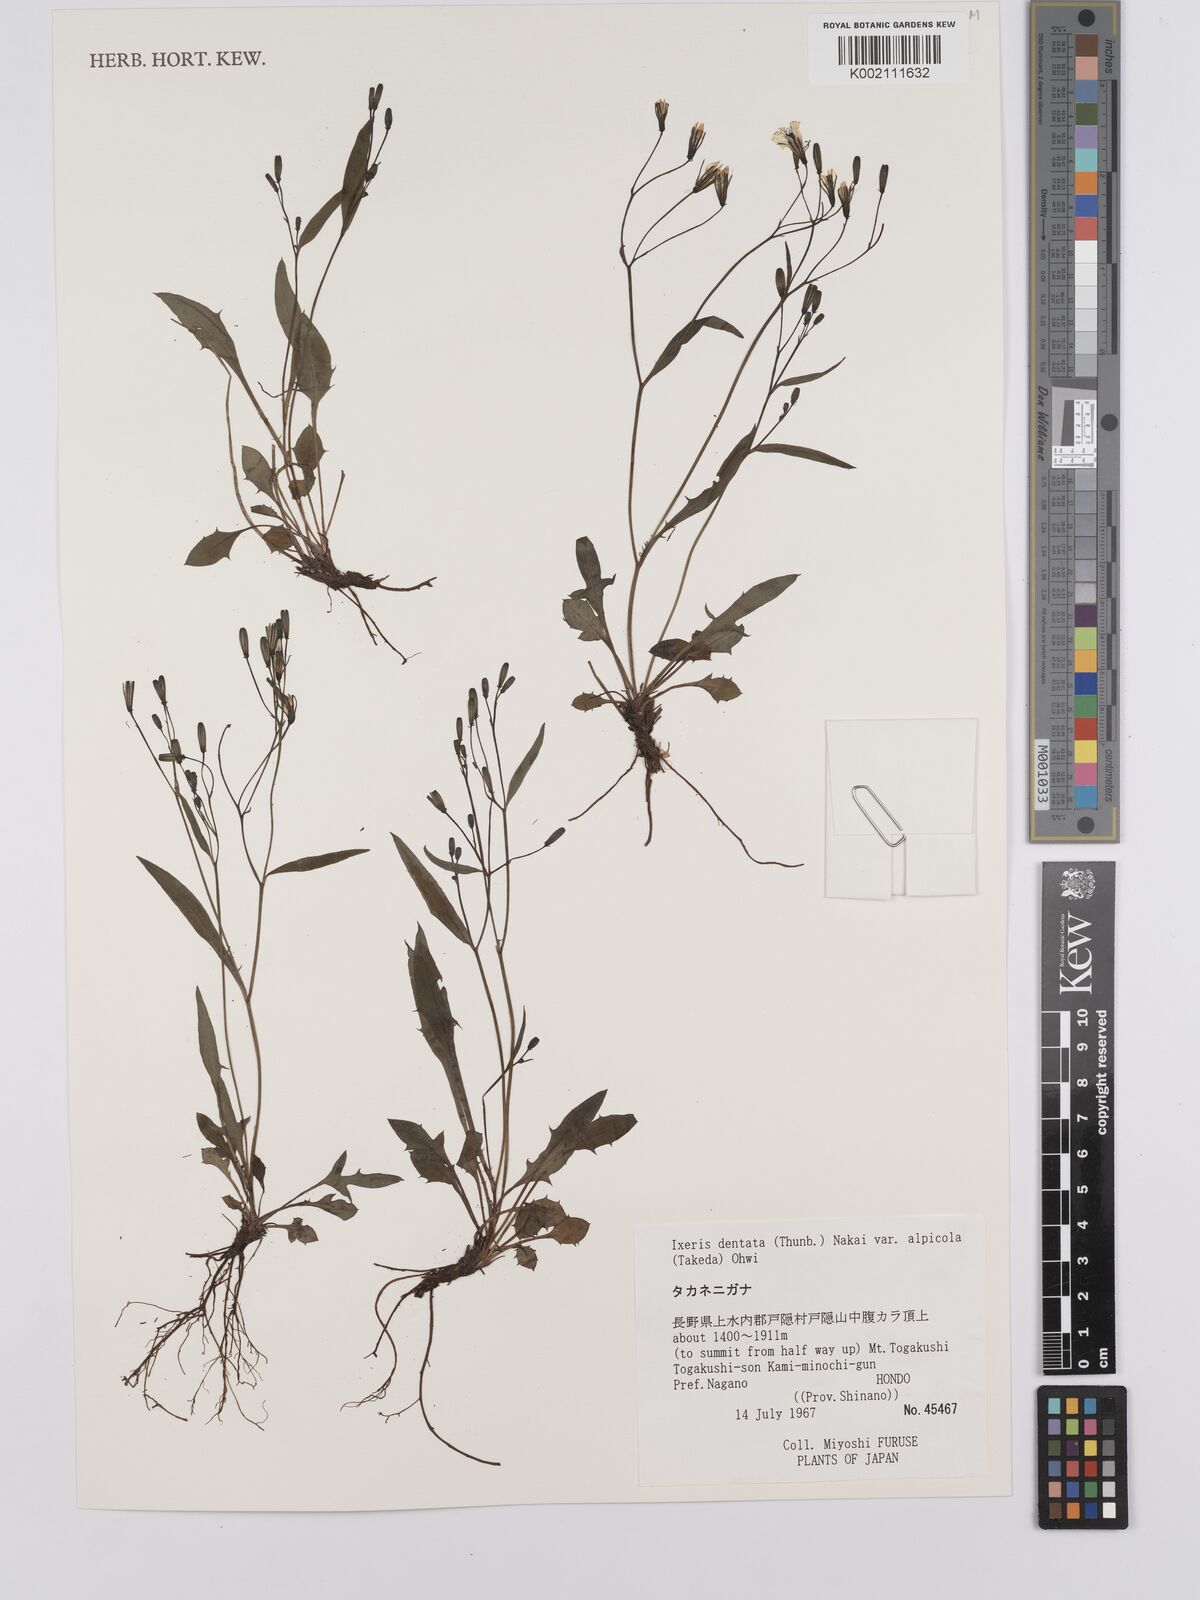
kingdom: Plantae
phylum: Tracheophyta
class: Magnoliopsida
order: Asterales
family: Asteraceae
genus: Ixeridium
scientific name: Ixeridium alpicola
